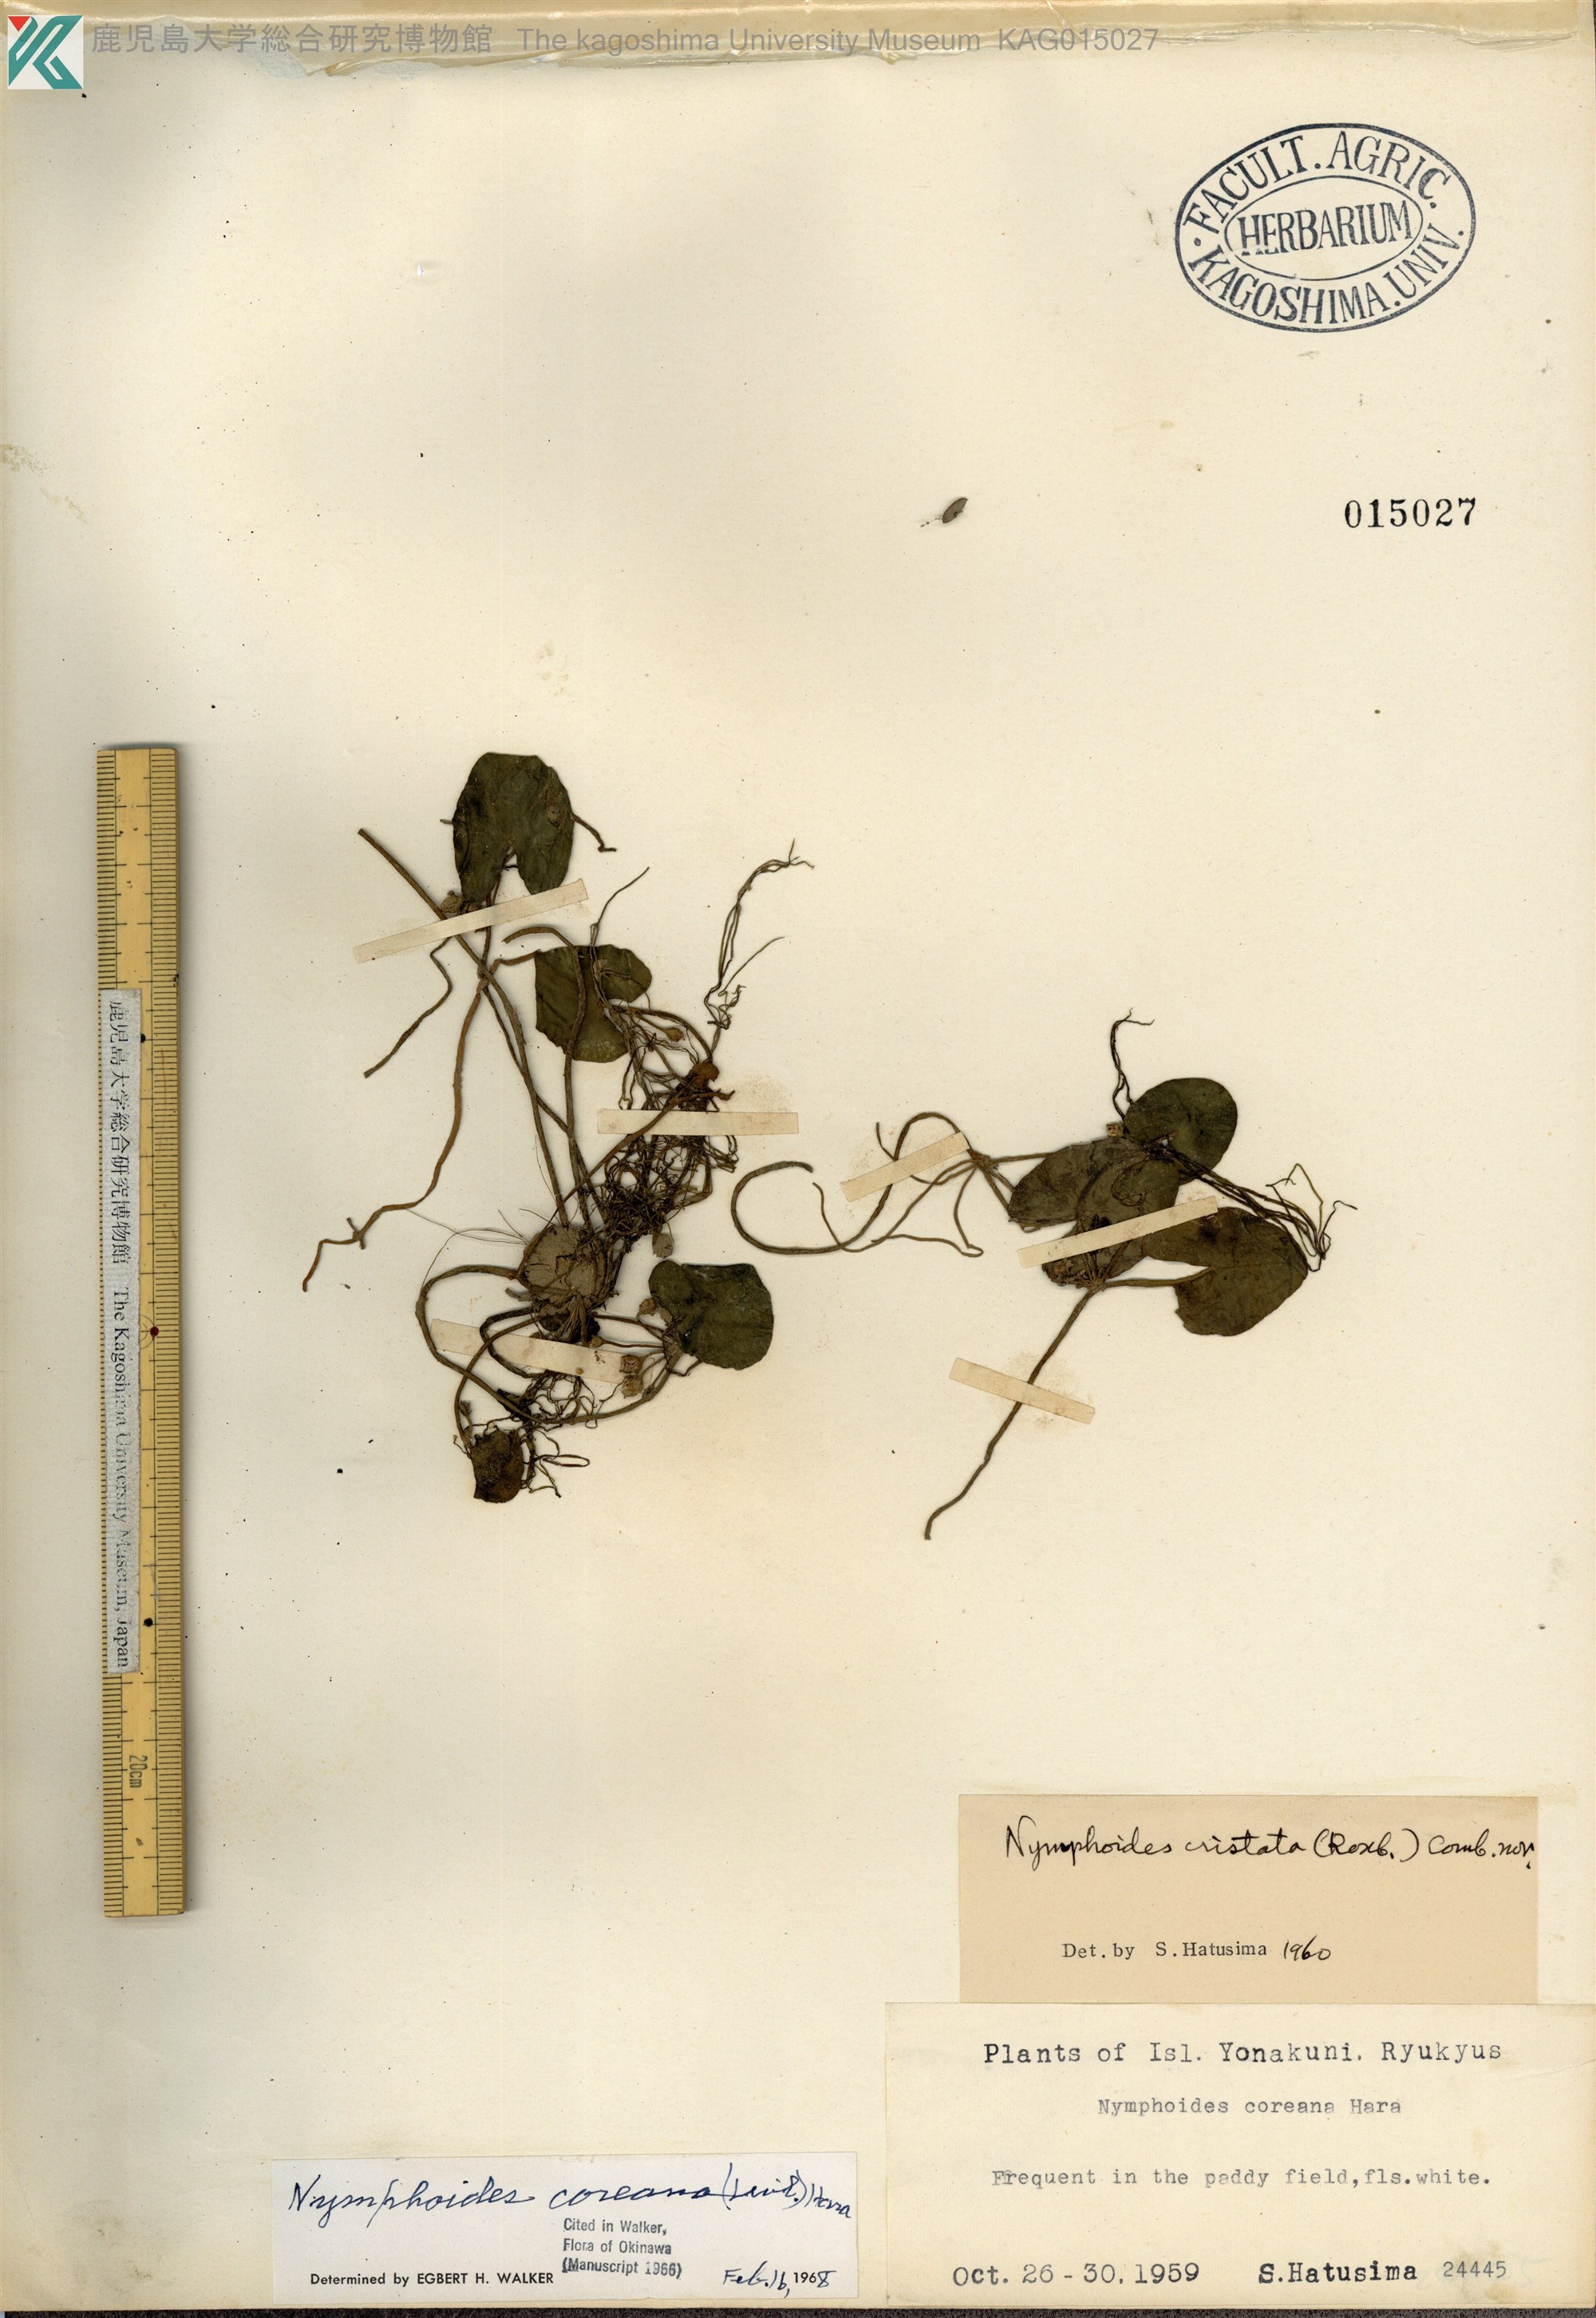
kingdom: Plantae
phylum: Tracheophyta
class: Magnoliopsida
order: Asterales
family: Menyanthaceae
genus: Nymphoides
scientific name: Nymphoides coreana
